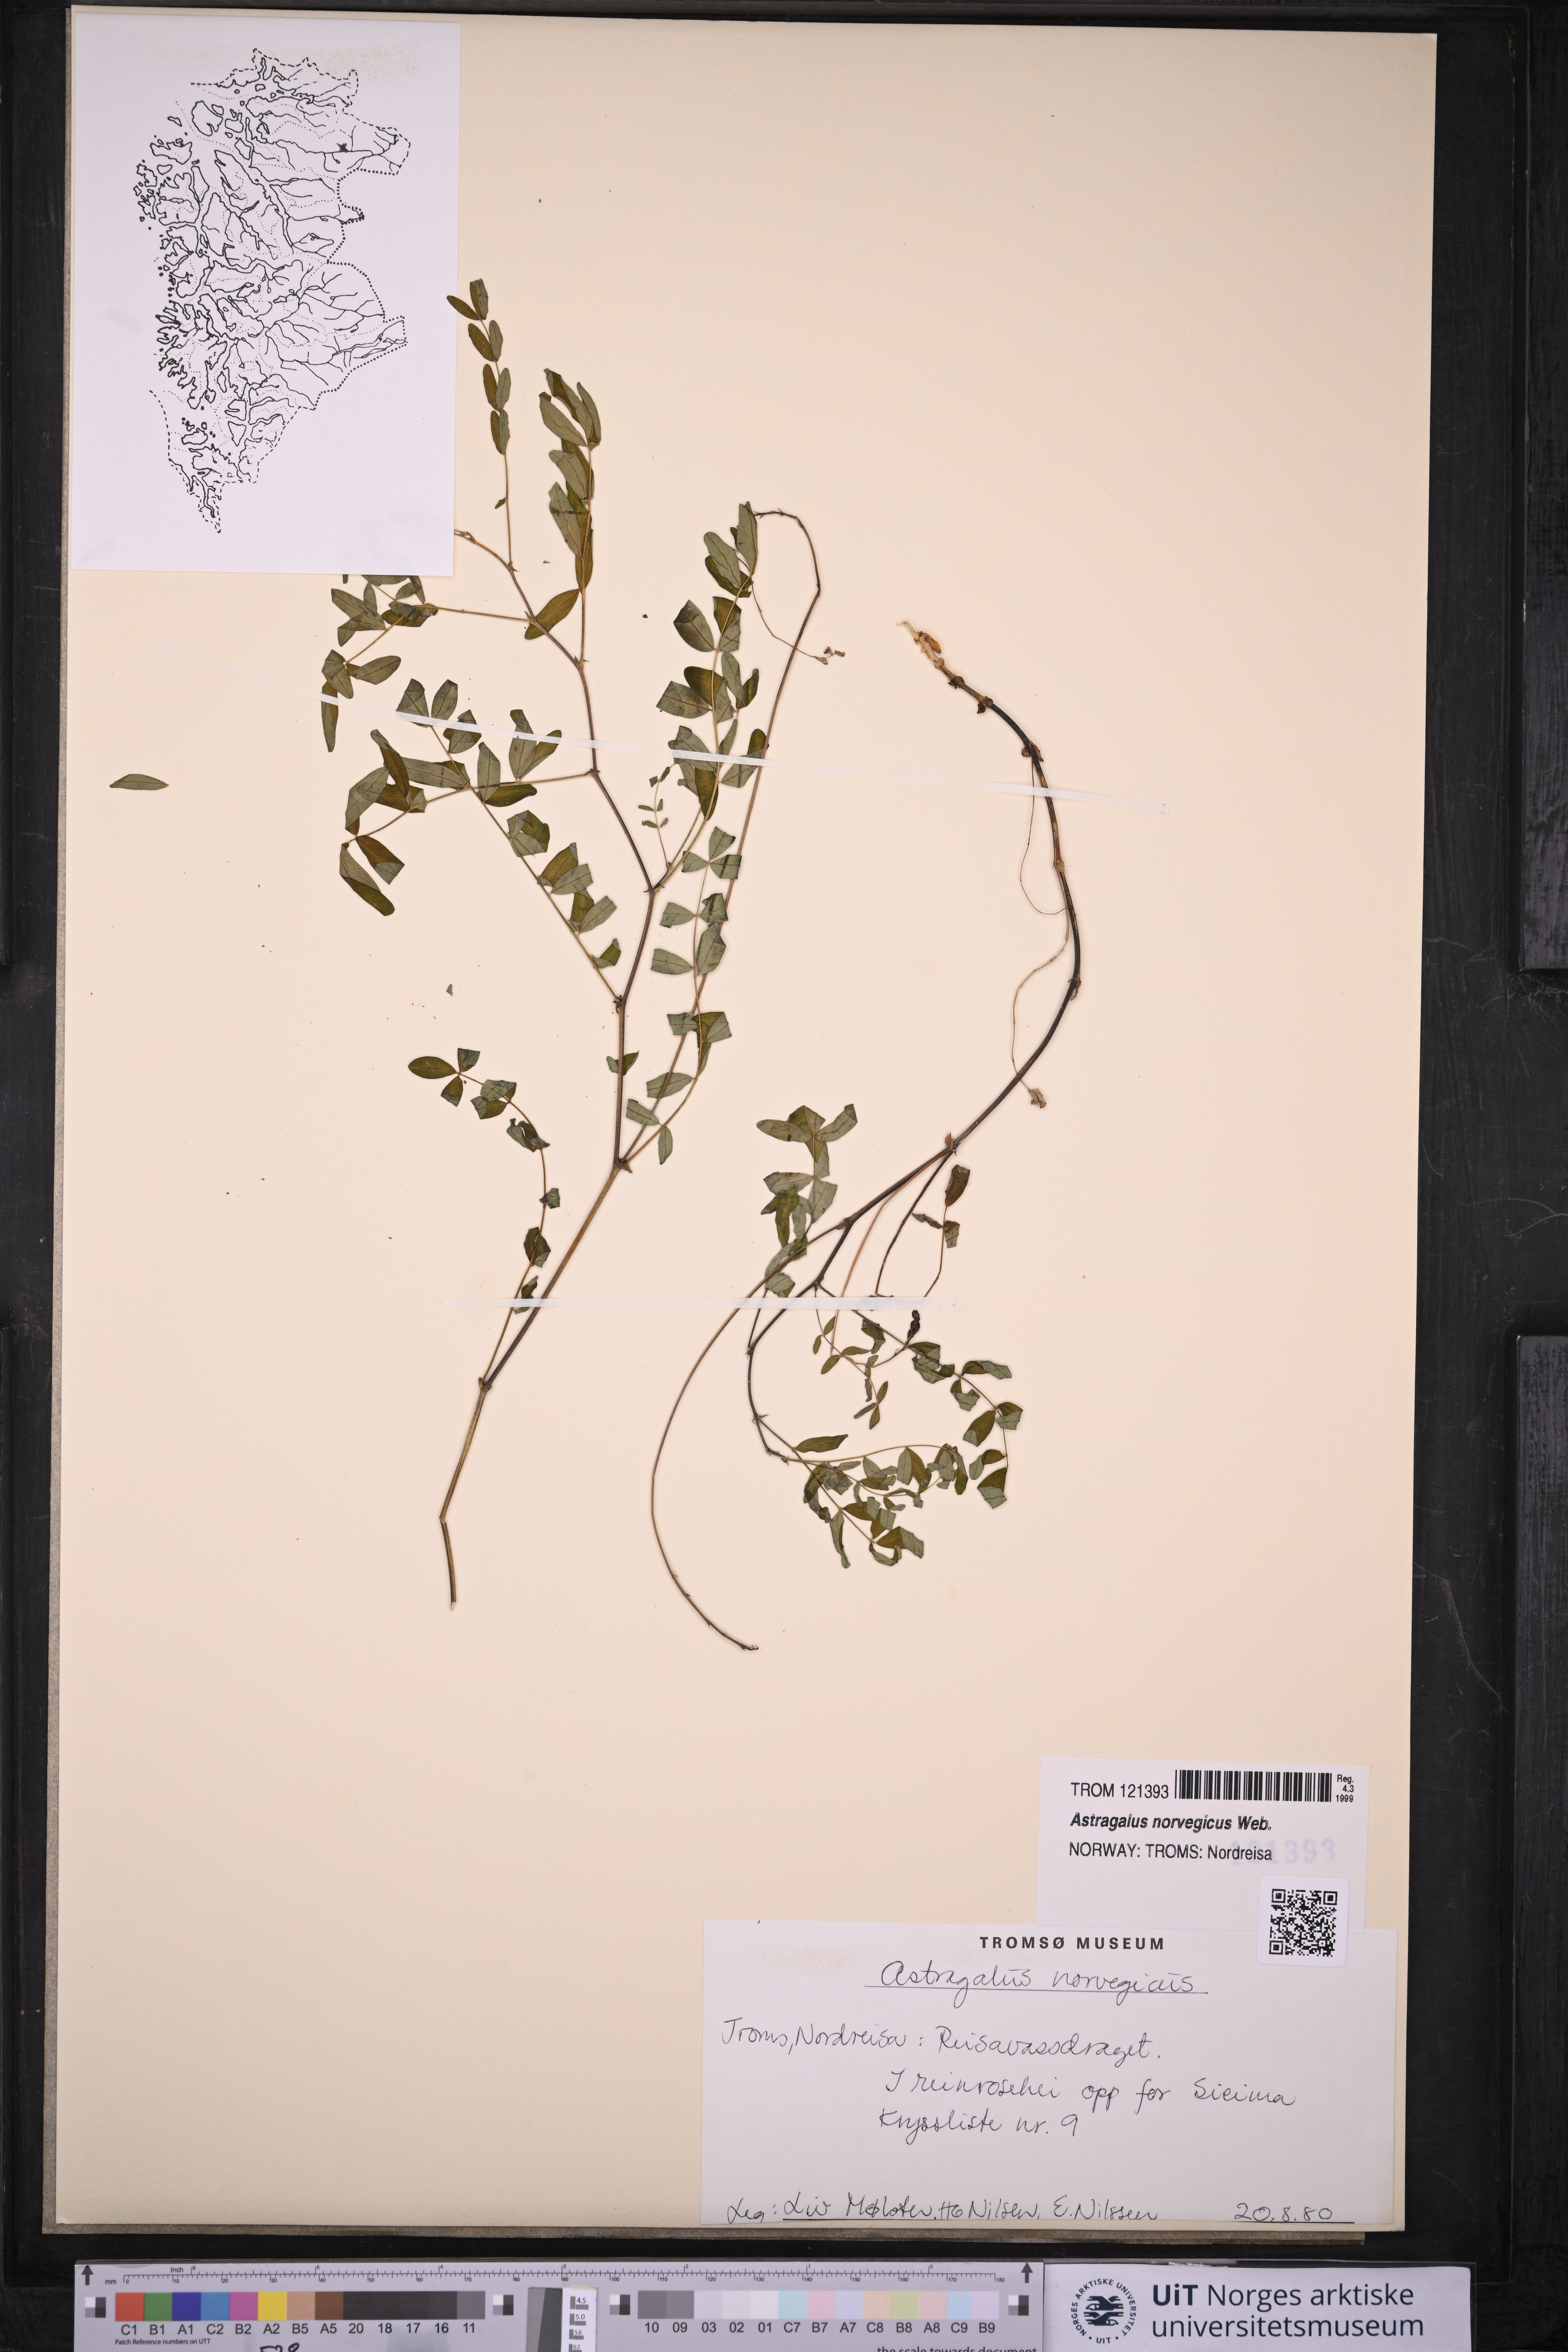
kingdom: Plantae
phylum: Tracheophyta
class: Magnoliopsida
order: Fabales
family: Fabaceae
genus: Astragalus
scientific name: Astragalus norvegicus
